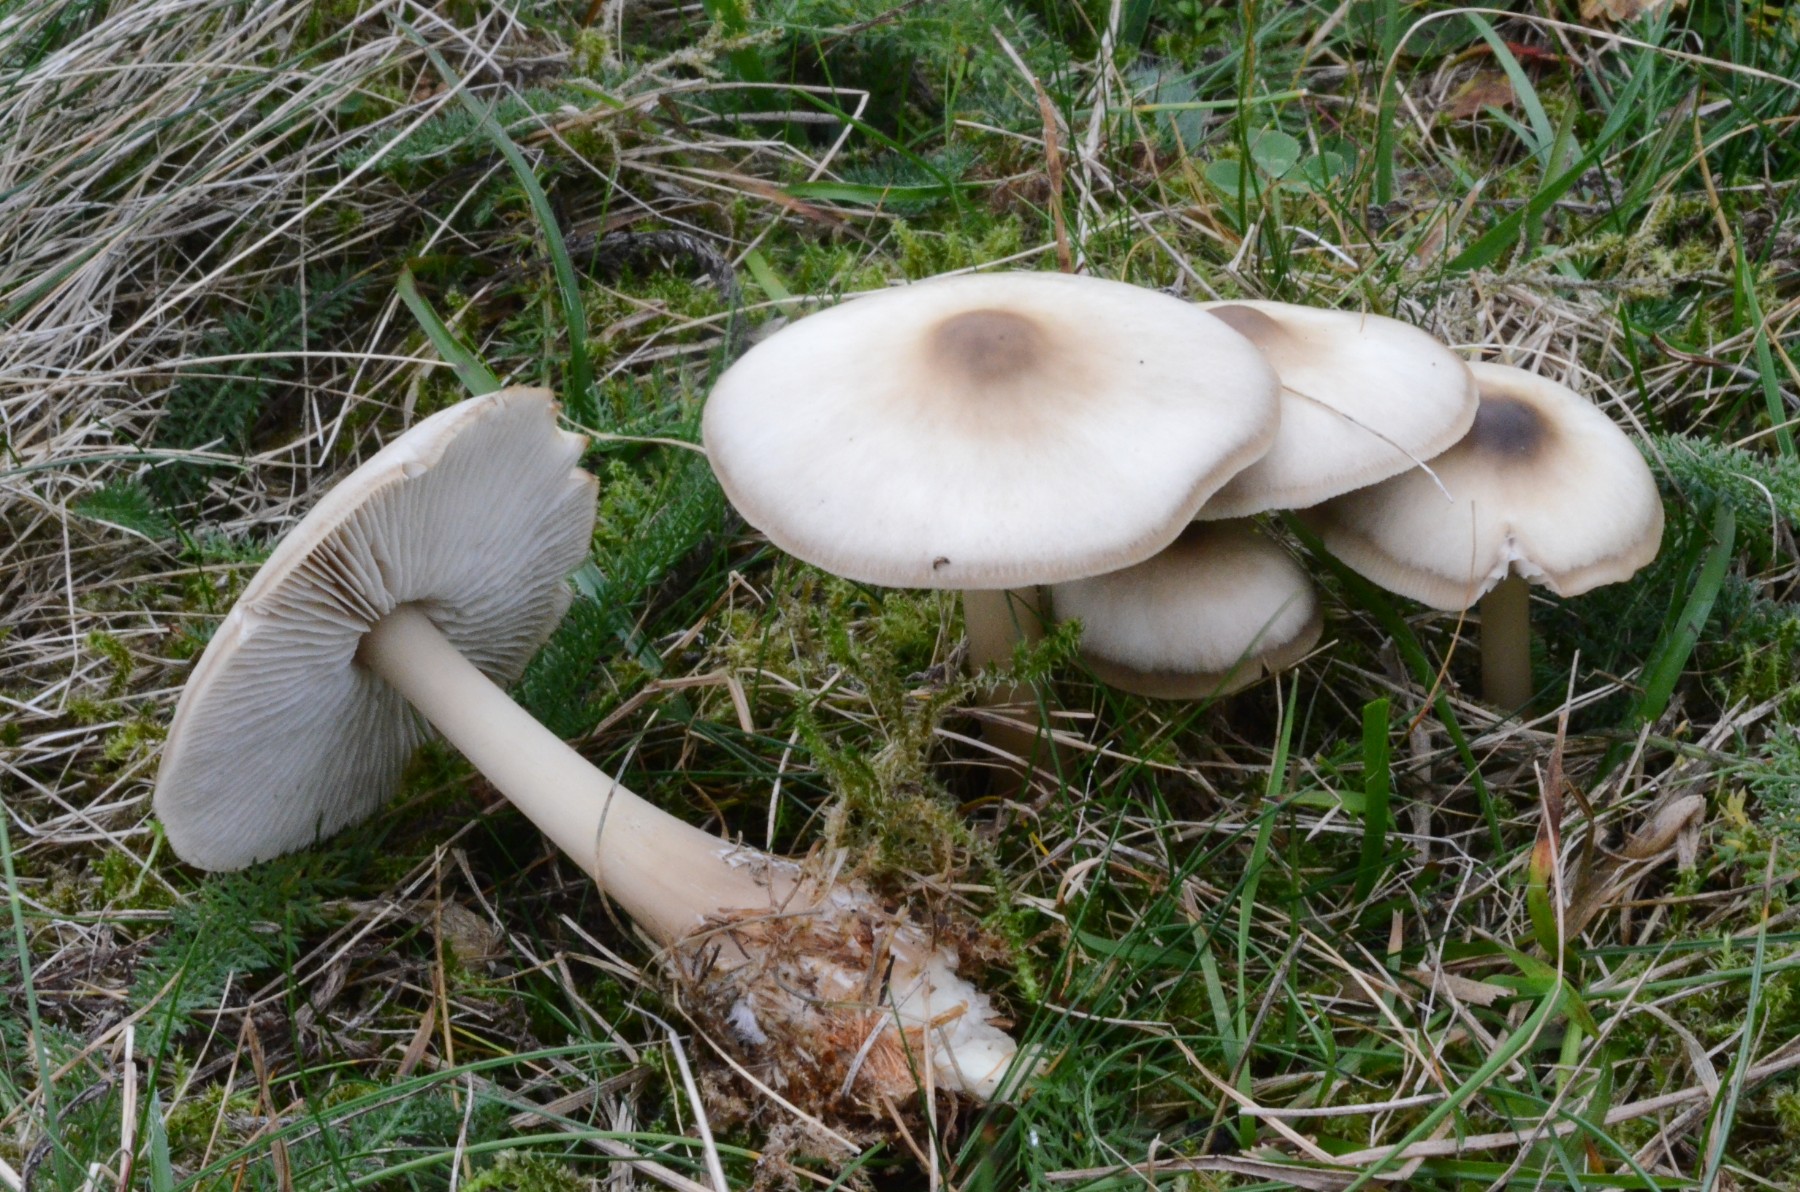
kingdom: Fungi
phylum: Basidiomycota
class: Agaricomycetes
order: Agaricales
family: Omphalotaceae
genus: Rhodocollybia
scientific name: Rhodocollybia asema
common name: horngrå fladhat
